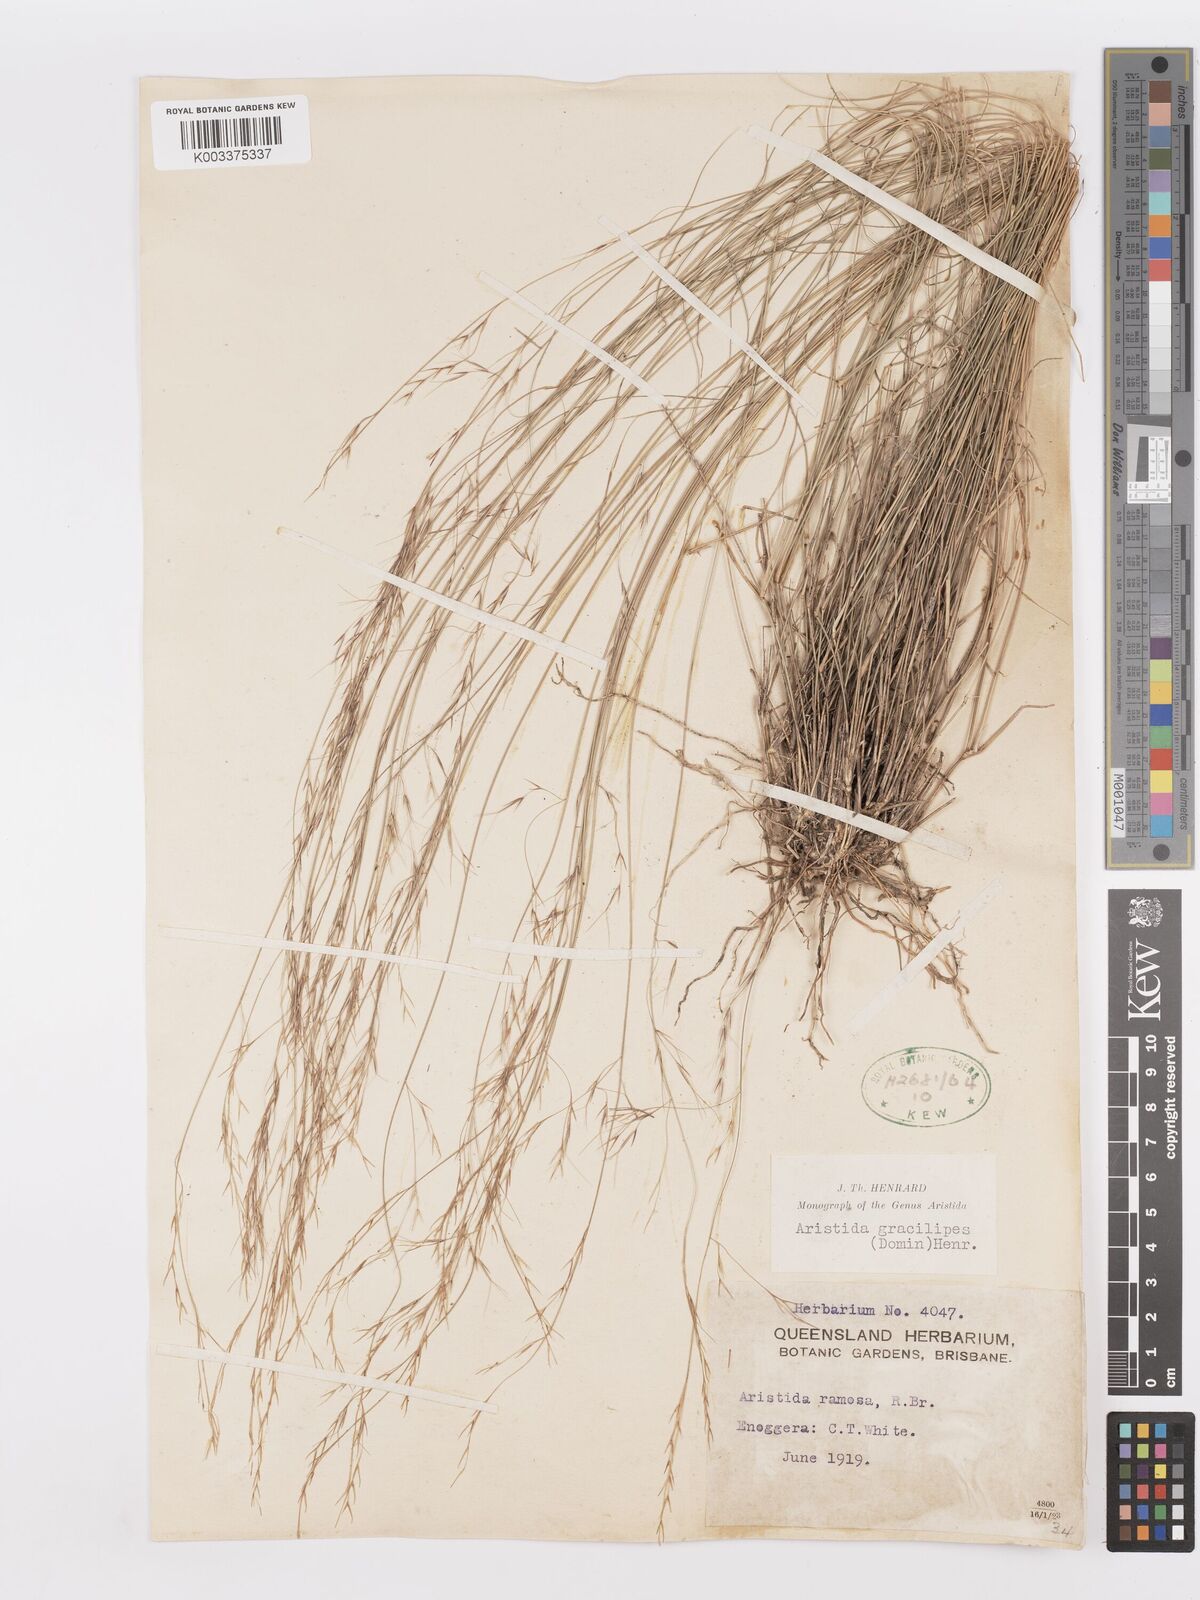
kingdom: Plantae
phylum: Tracheophyta
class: Liliopsida
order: Poales
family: Poaceae
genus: Aristida
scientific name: Aristida gracilipes
